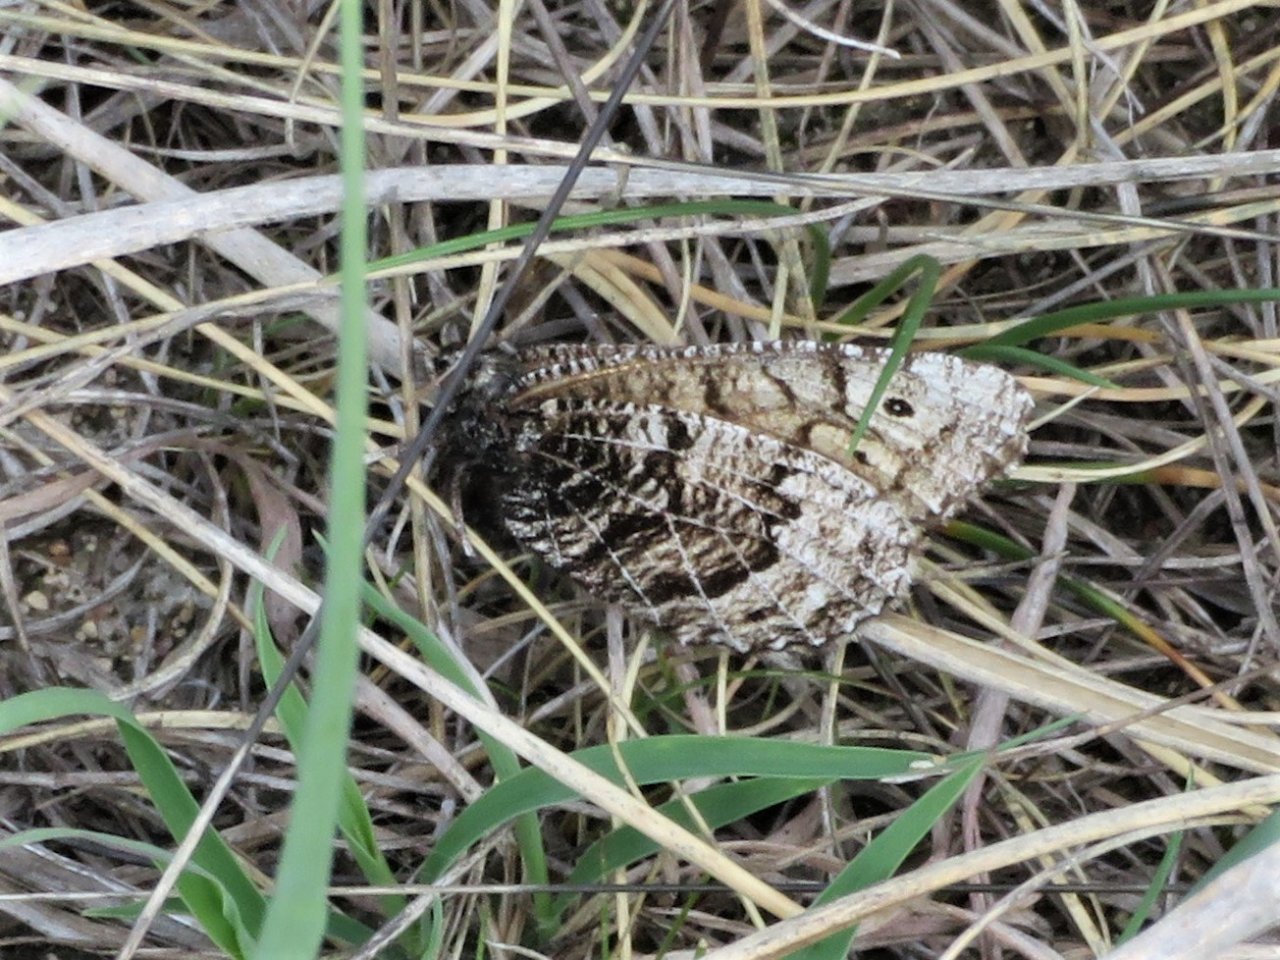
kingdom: Animalia
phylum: Arthropoda
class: Insecta
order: Lepidoptera
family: Nymphalidae
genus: Oeneis
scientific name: Oeneis alberta
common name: Alberta Arctic
